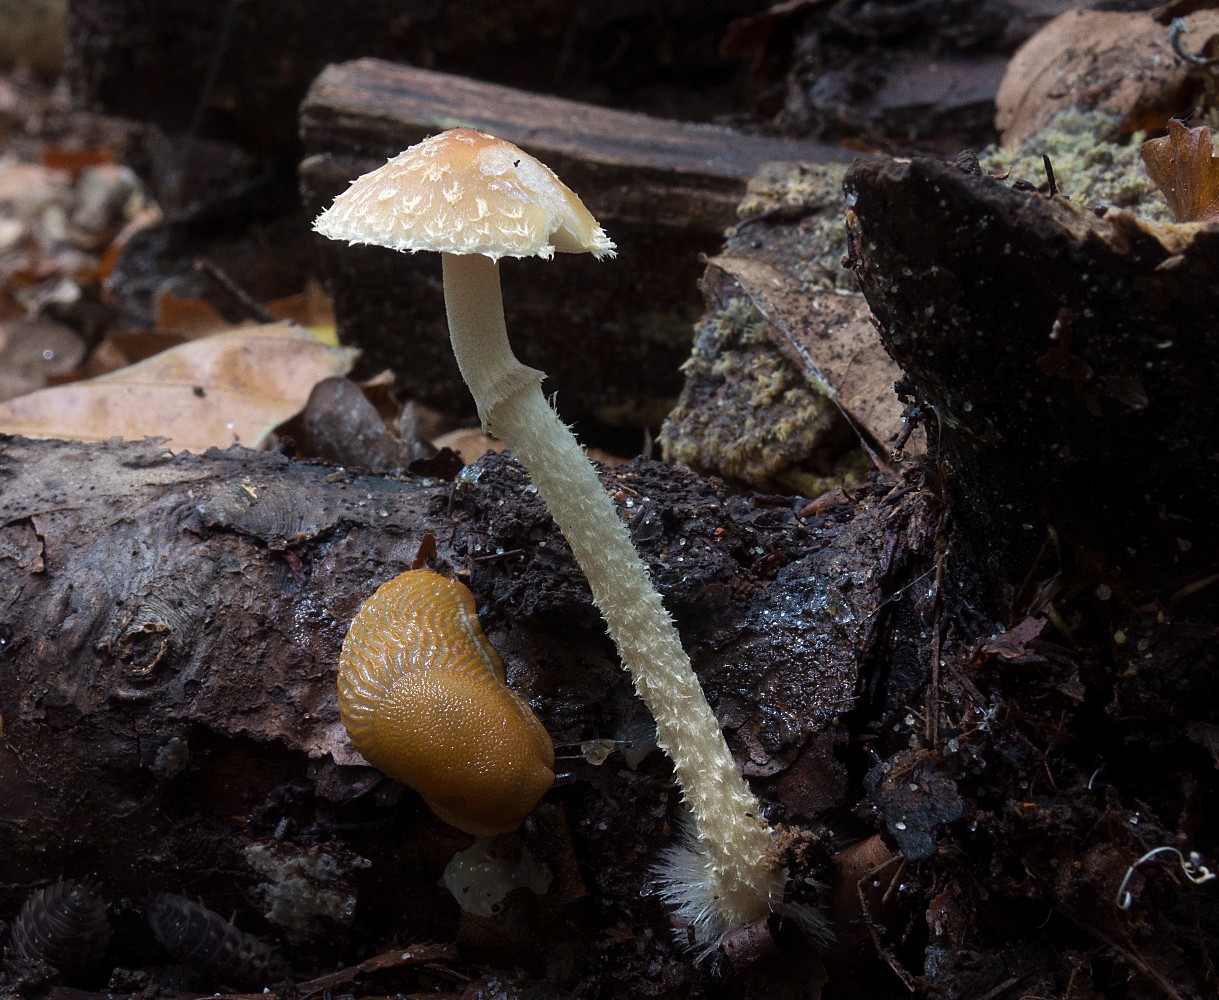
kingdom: Fungi
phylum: Basidiomycota
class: Agaricomycetes
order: Agaricales
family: Strophariaceae
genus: Leratiomyces
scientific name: Leratiomyces squamosus
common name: skællet bredblad
